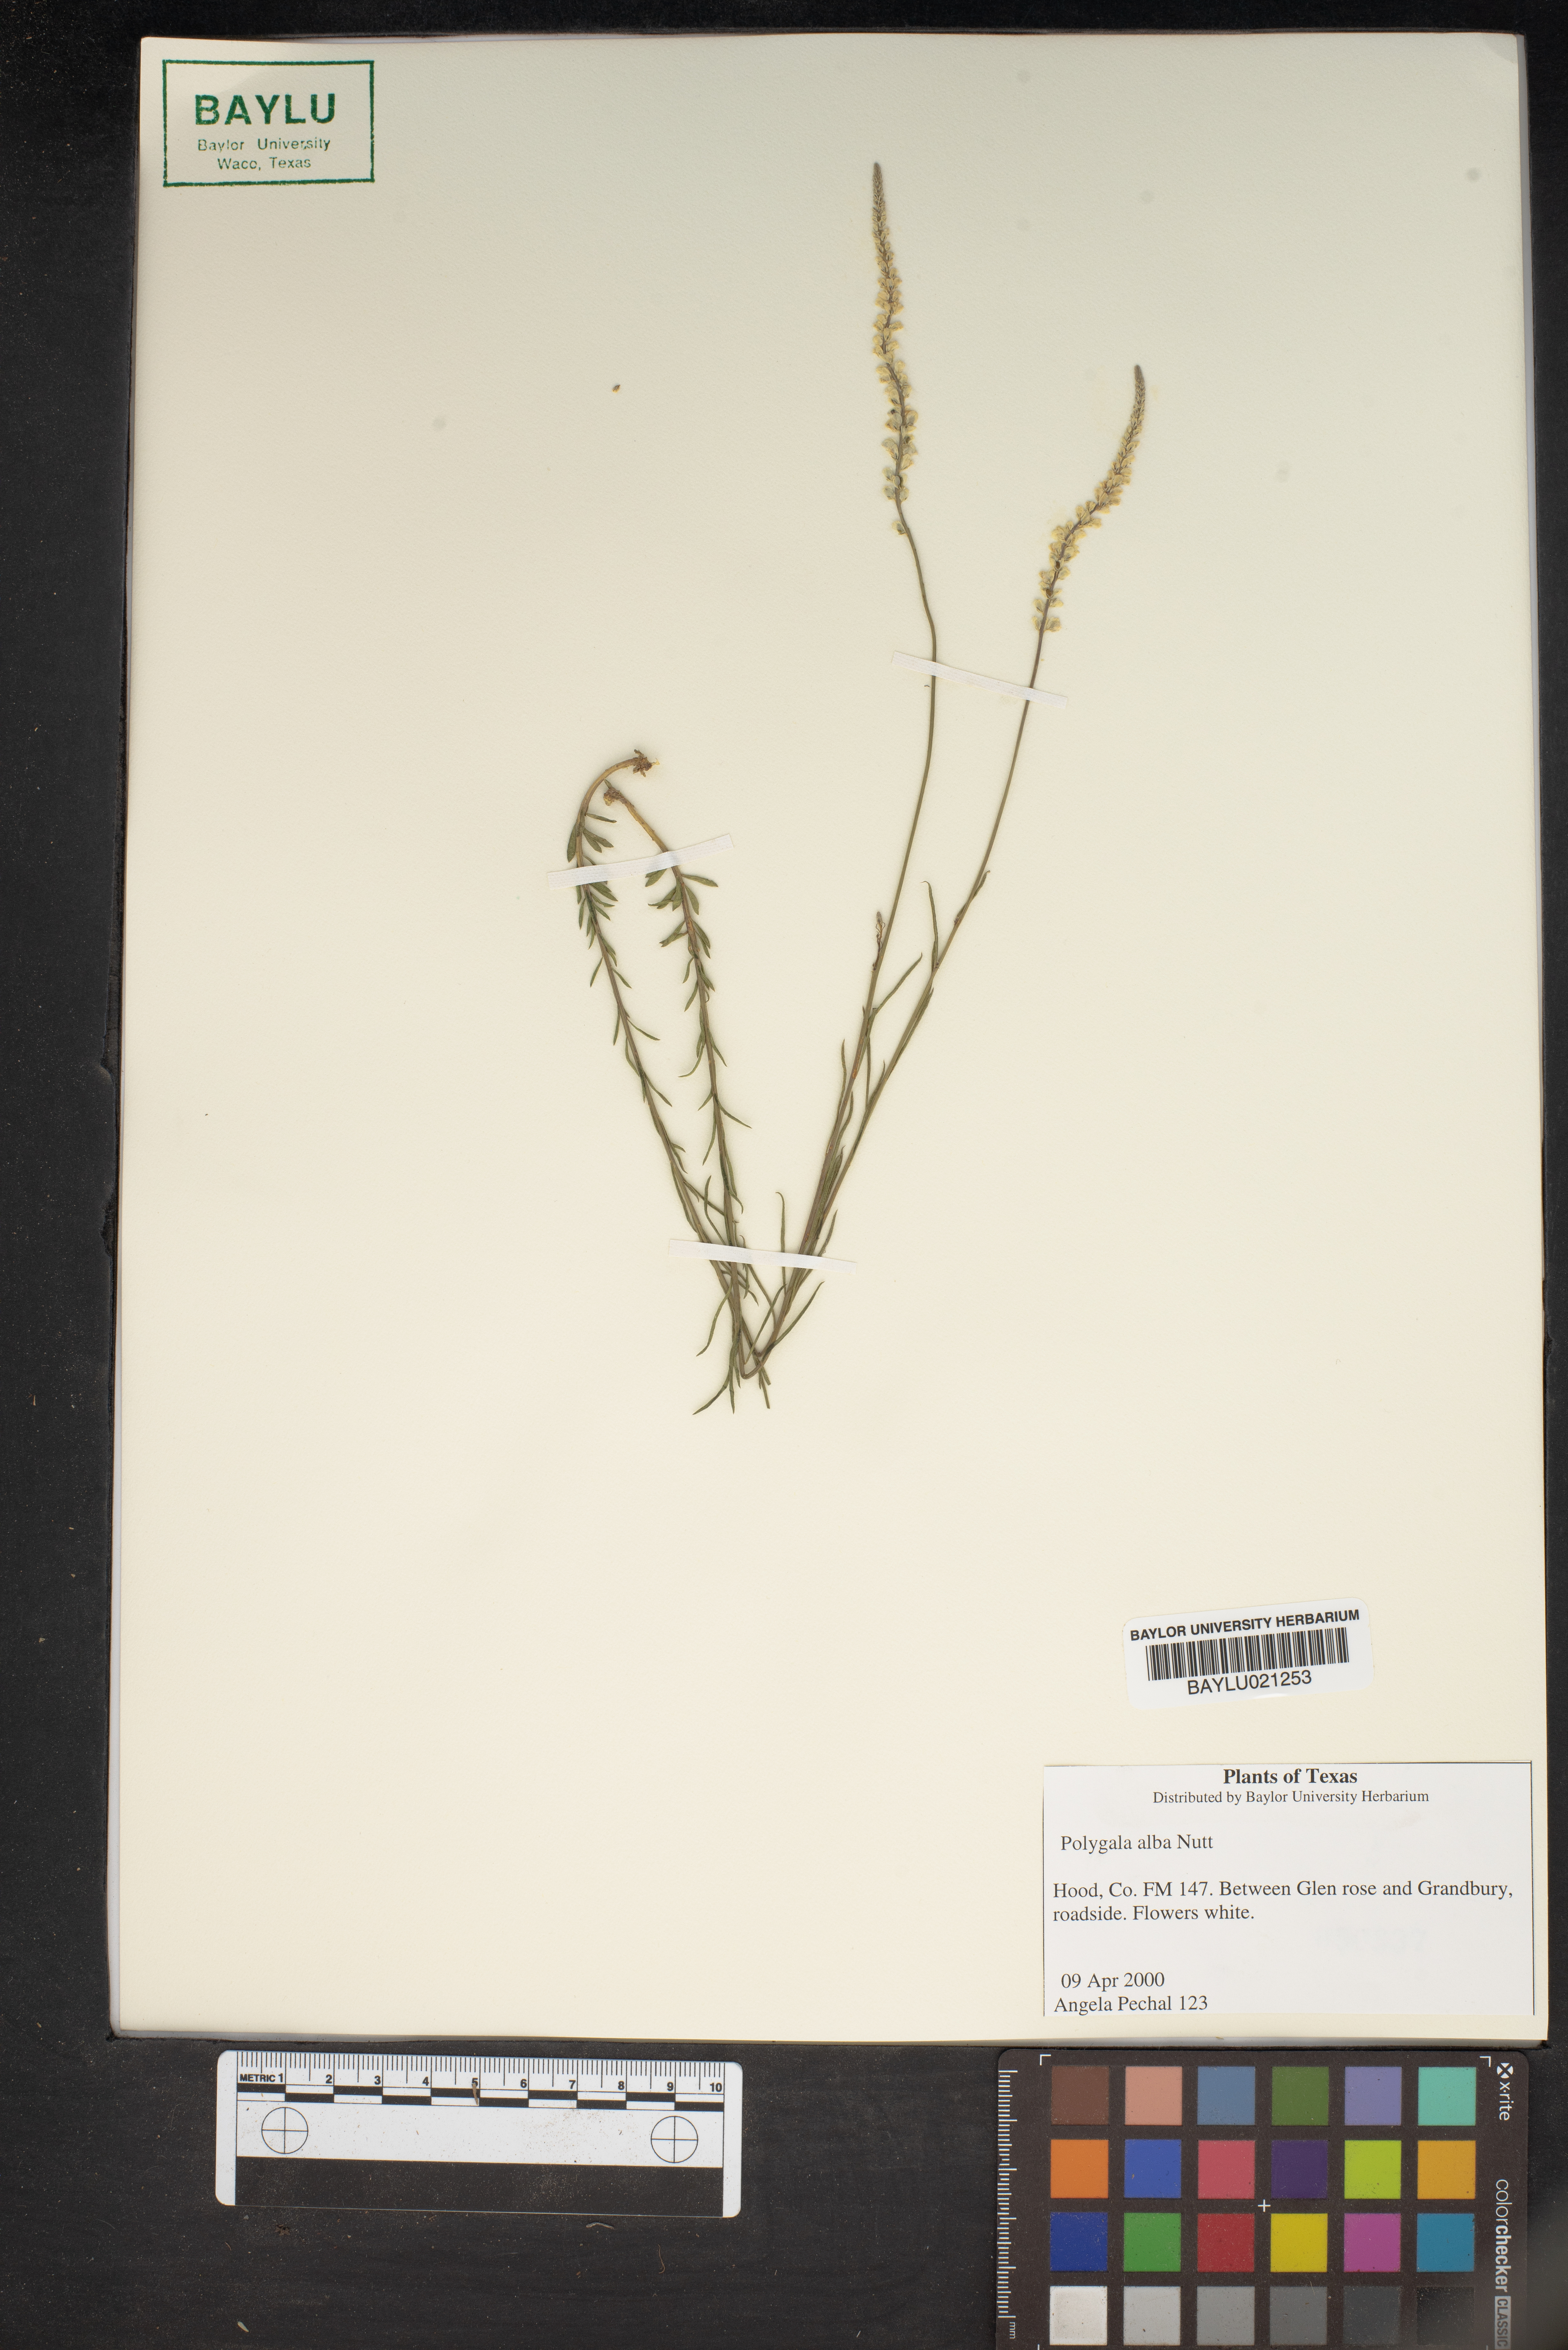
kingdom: Plantae
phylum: Tracheophyta
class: Magnoliopsida
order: Fabales
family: Polygalaceae
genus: Polygala
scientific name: Polygala alba
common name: White milkwort
